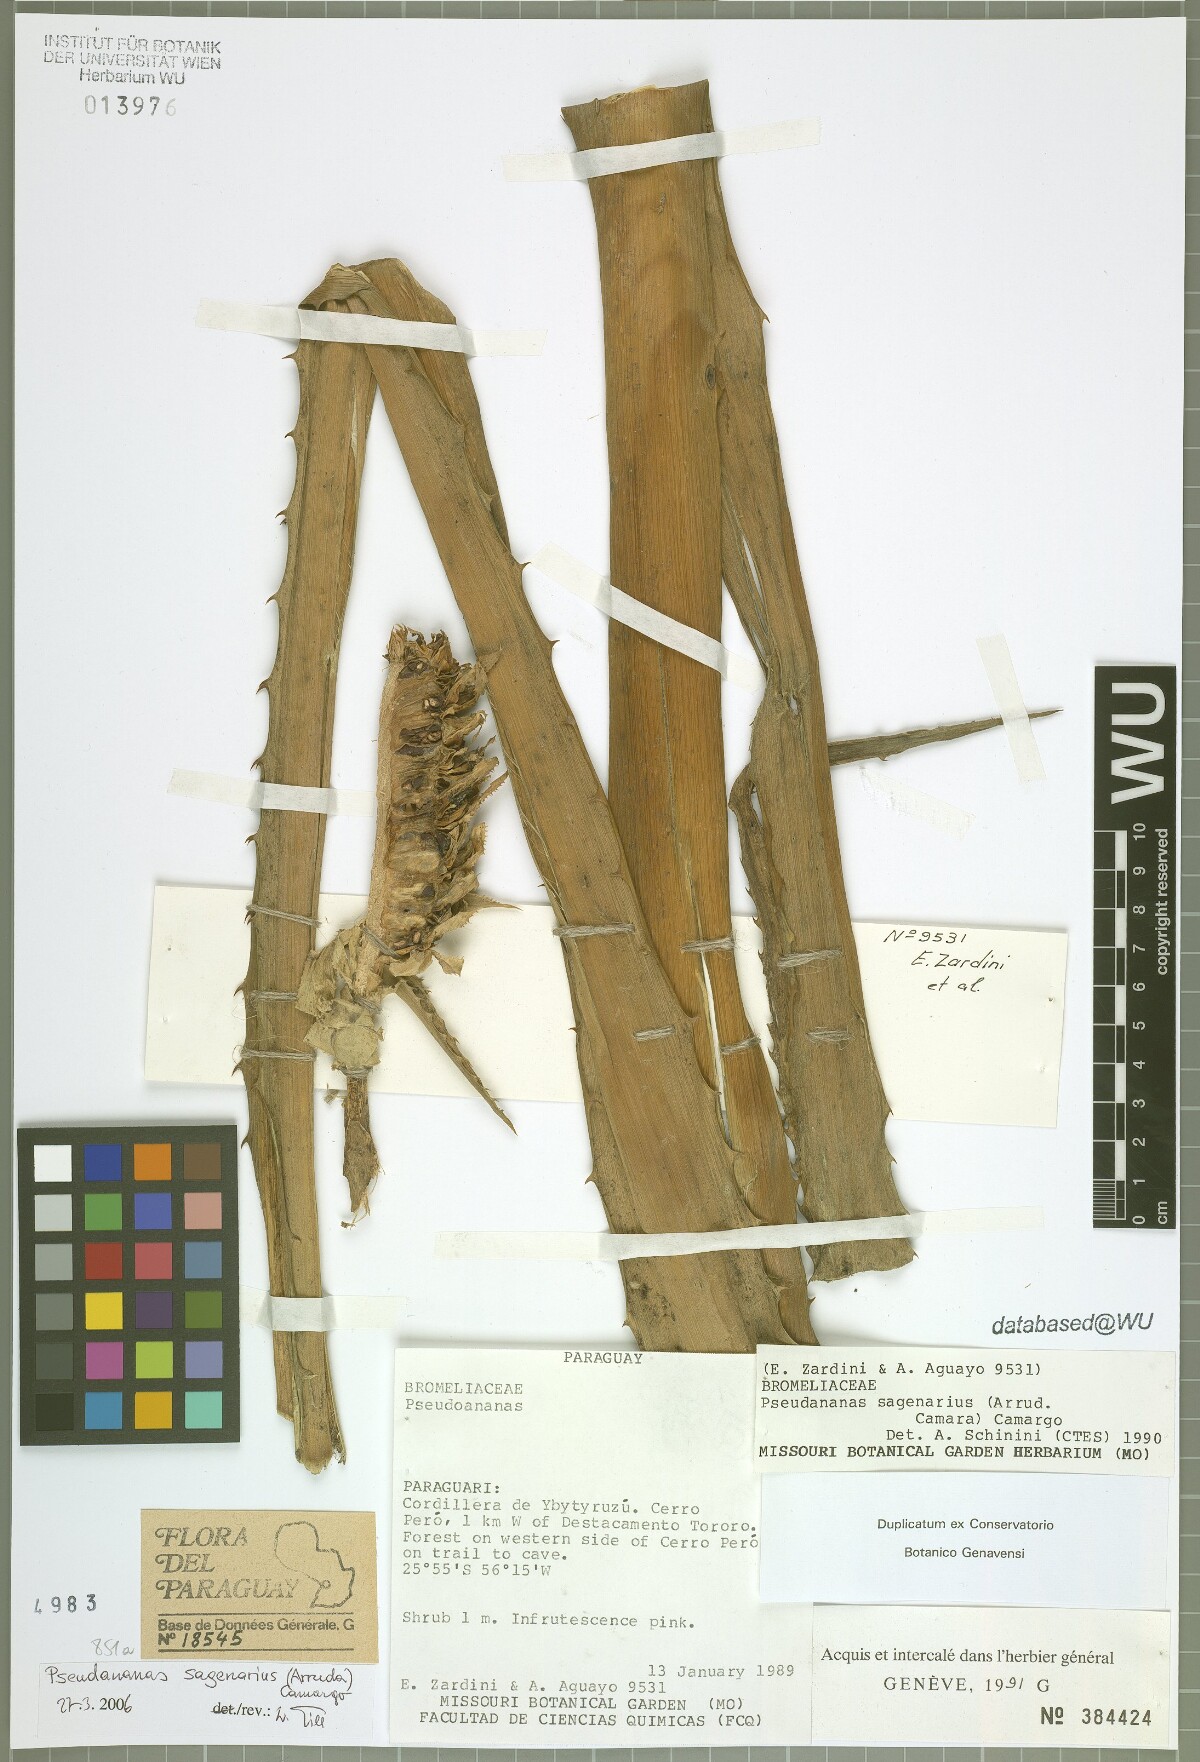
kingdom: Plantae
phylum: Tracheophyta
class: Liliopsida
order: Poales
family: Bromeliaceae
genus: Ananas
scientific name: Ananas comosus
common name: Pineapple
